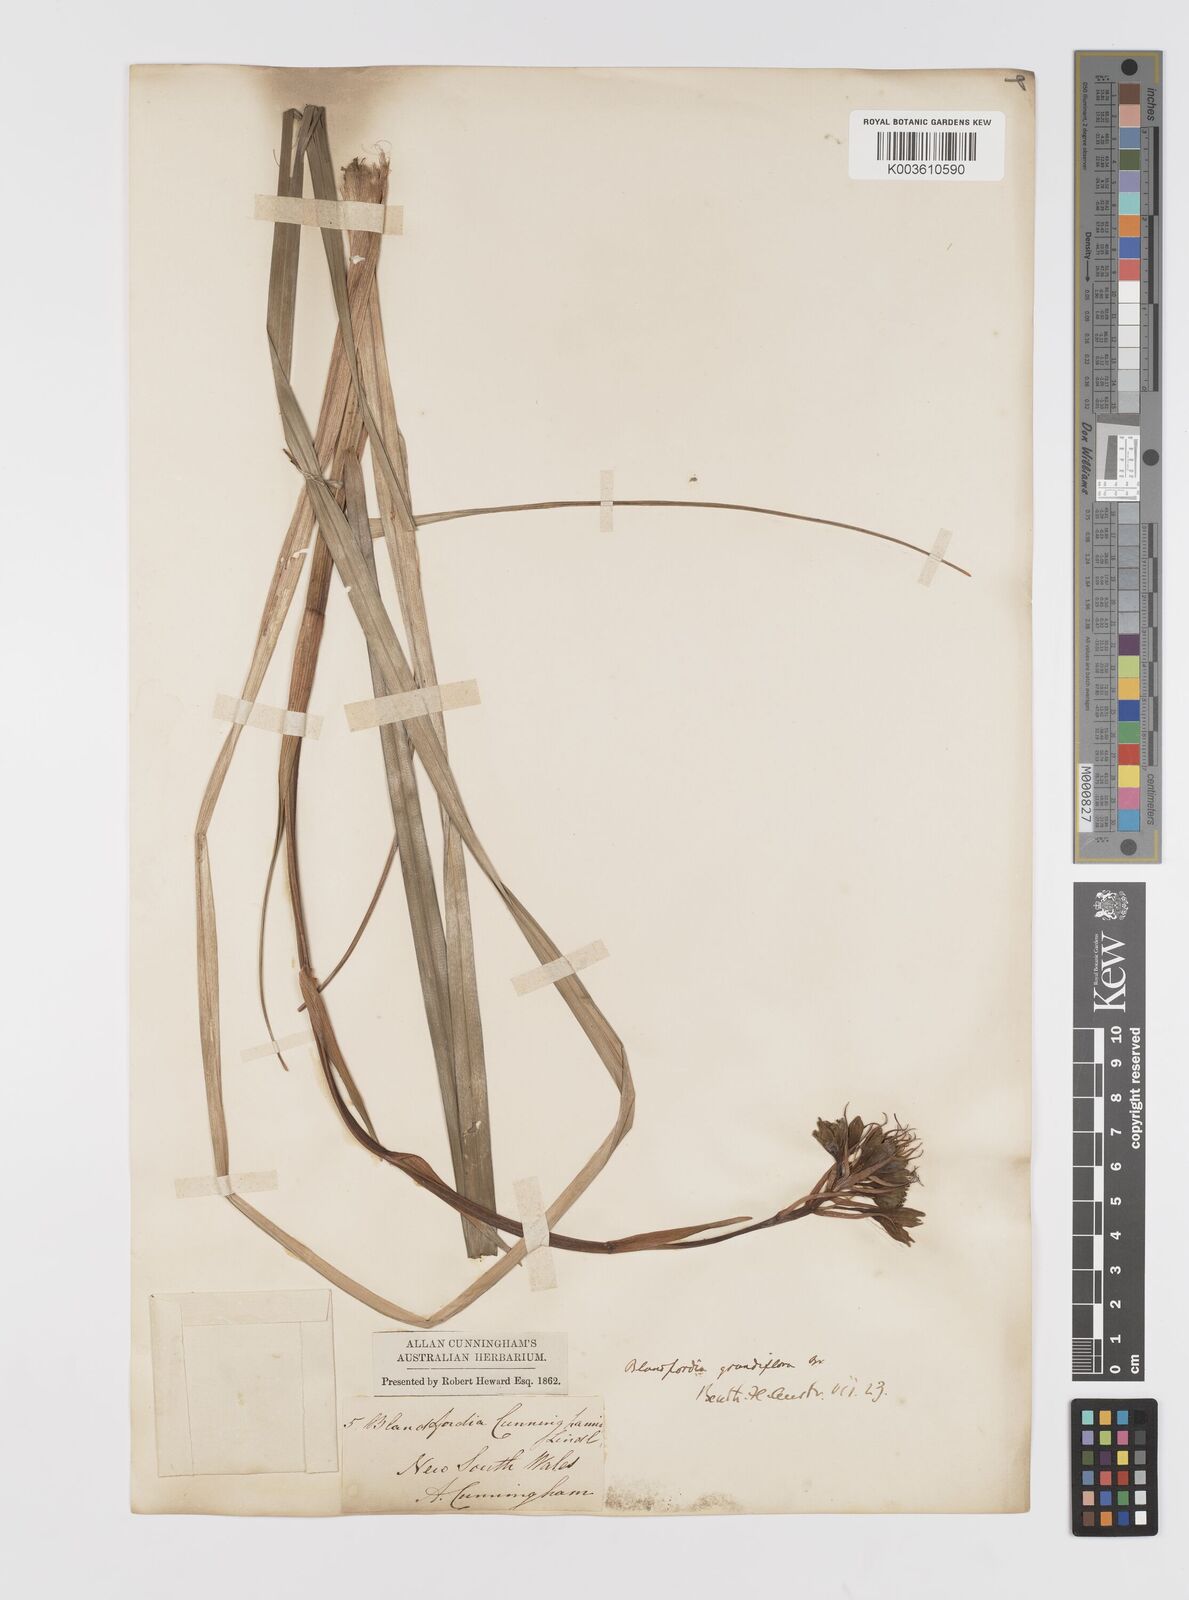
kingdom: Plantae
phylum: Tracheophyta
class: Liliopsida
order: Asparagales
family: Blandfordiaceae
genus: Blandfordia
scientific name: Blandfordia cunninghamii
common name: Christmas-bell
